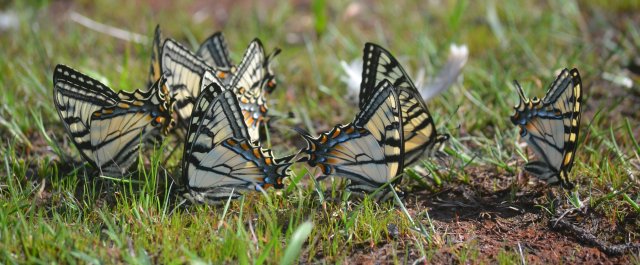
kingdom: Animalia
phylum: Arthropoda
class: Insecta
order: Lepidoptera
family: Papilionidae
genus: Pterourus
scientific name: Pterourus canadensis
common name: Canadian Tiger Swallowtail
